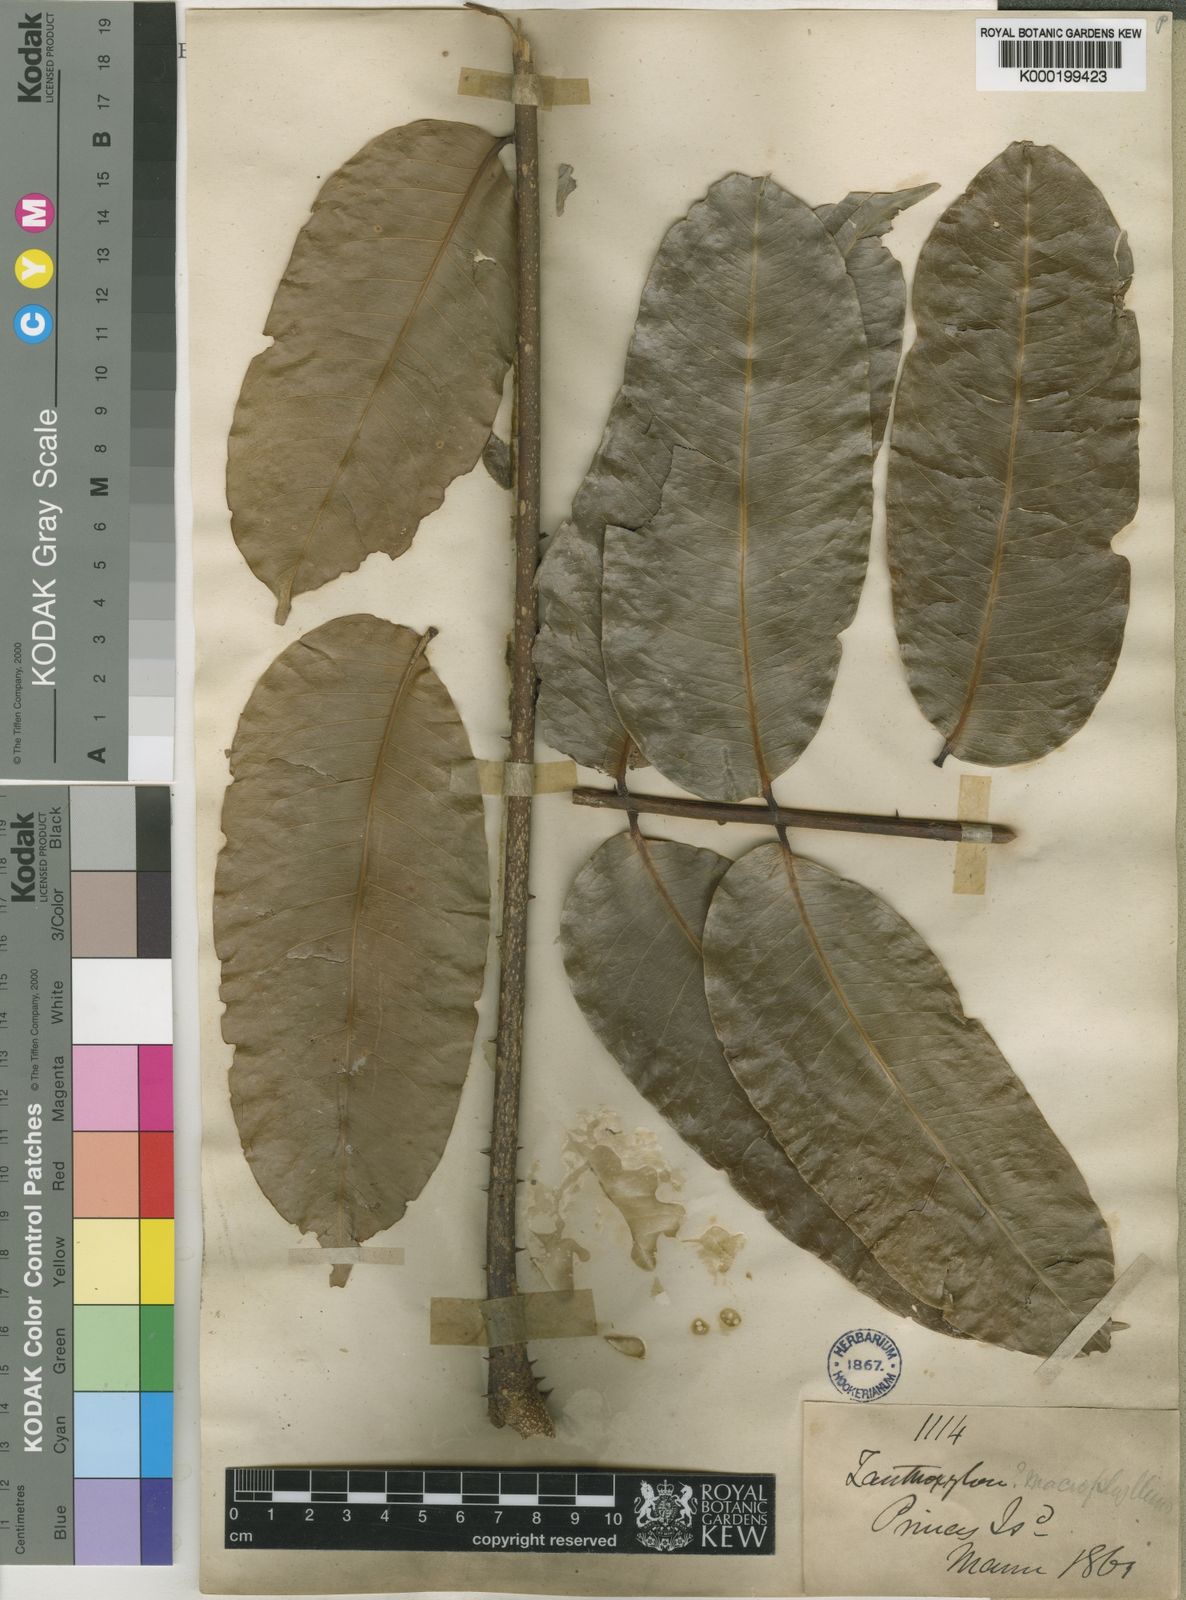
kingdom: Plantae
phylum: Tracheophyta
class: Magnoliopsida
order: Sapindales
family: Rutaceae
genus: Zanthoxylum
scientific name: Zanthoxylum gilletii
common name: African satinwood
